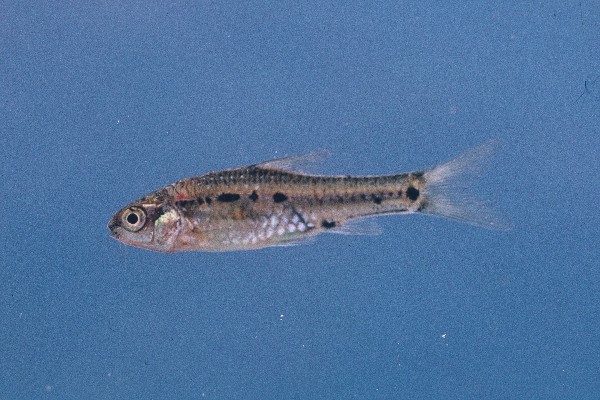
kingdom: Animalia
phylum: Chordata
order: Cypriniformes
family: Cyprinidae
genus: Enteromius
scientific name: Enteromius lineomaculatus
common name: Line-spotted barb
